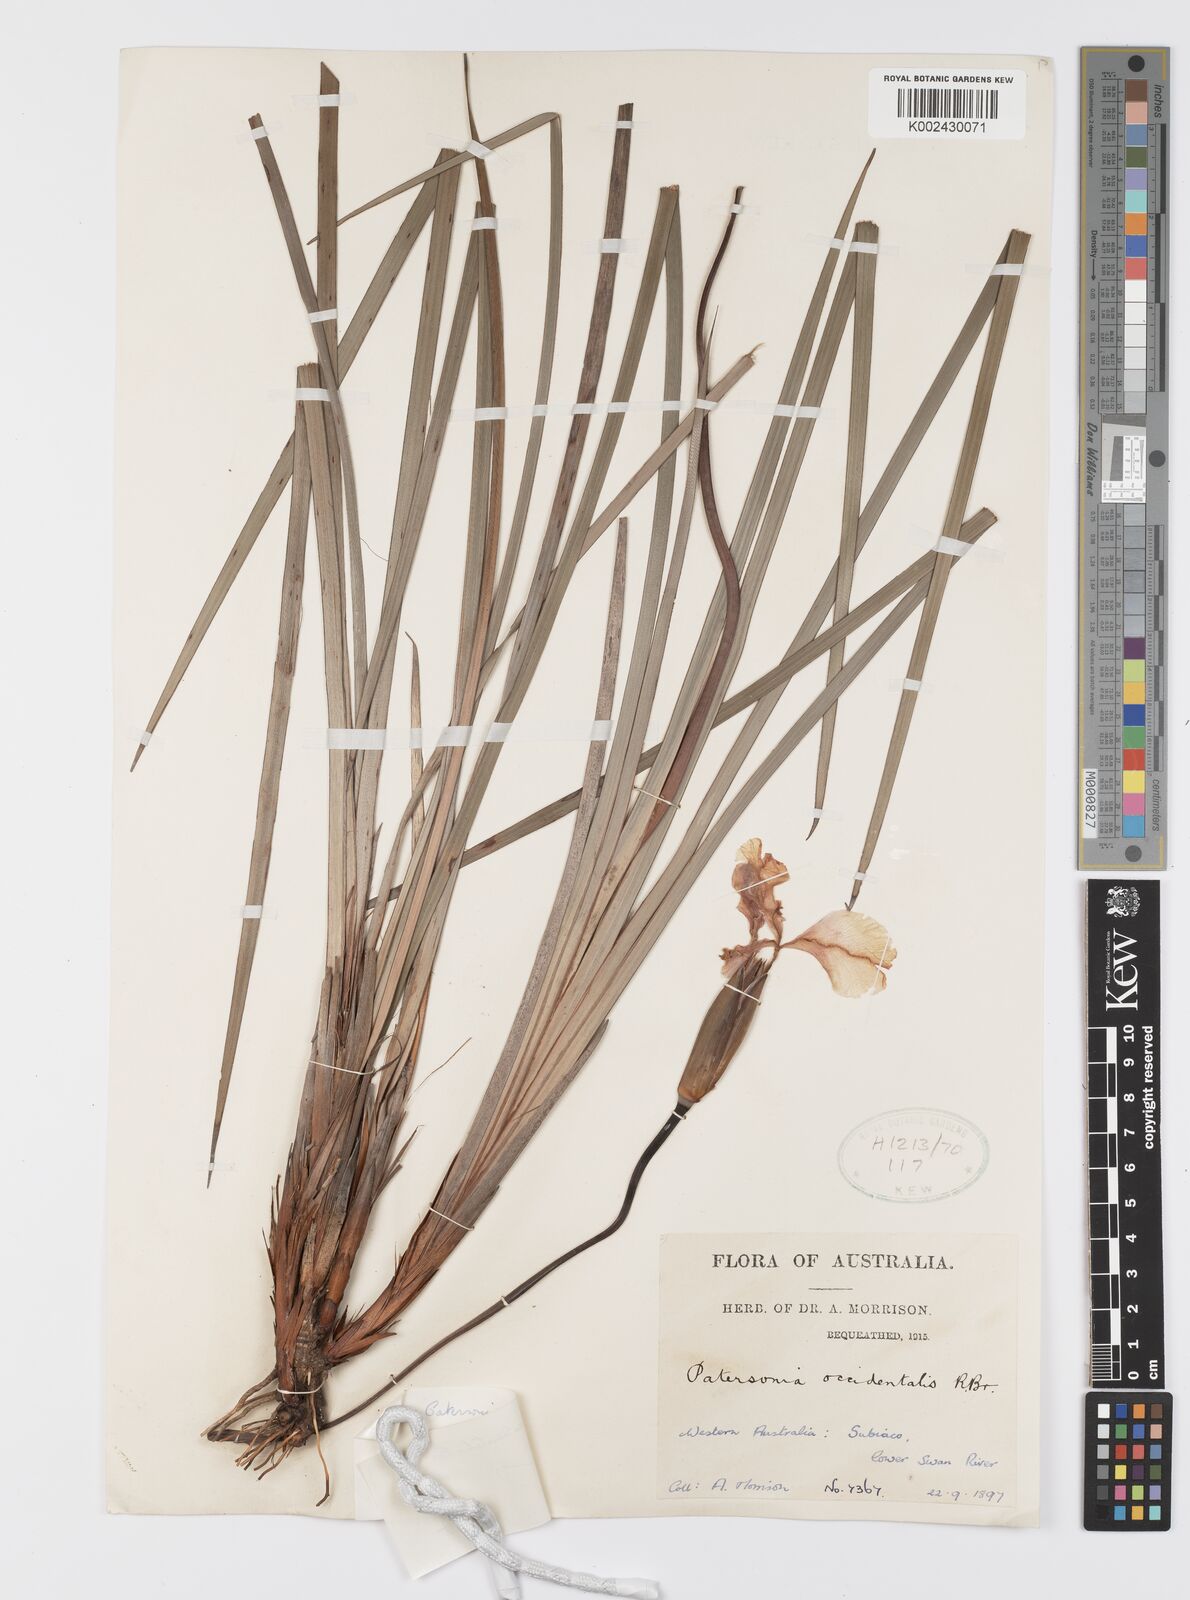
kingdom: Plantae
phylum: Tracheophyta
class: Liliopsida
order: Asparagales
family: Iridaceae
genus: Patersonia
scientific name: Patersonia occidentalis
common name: Long purple-flag
